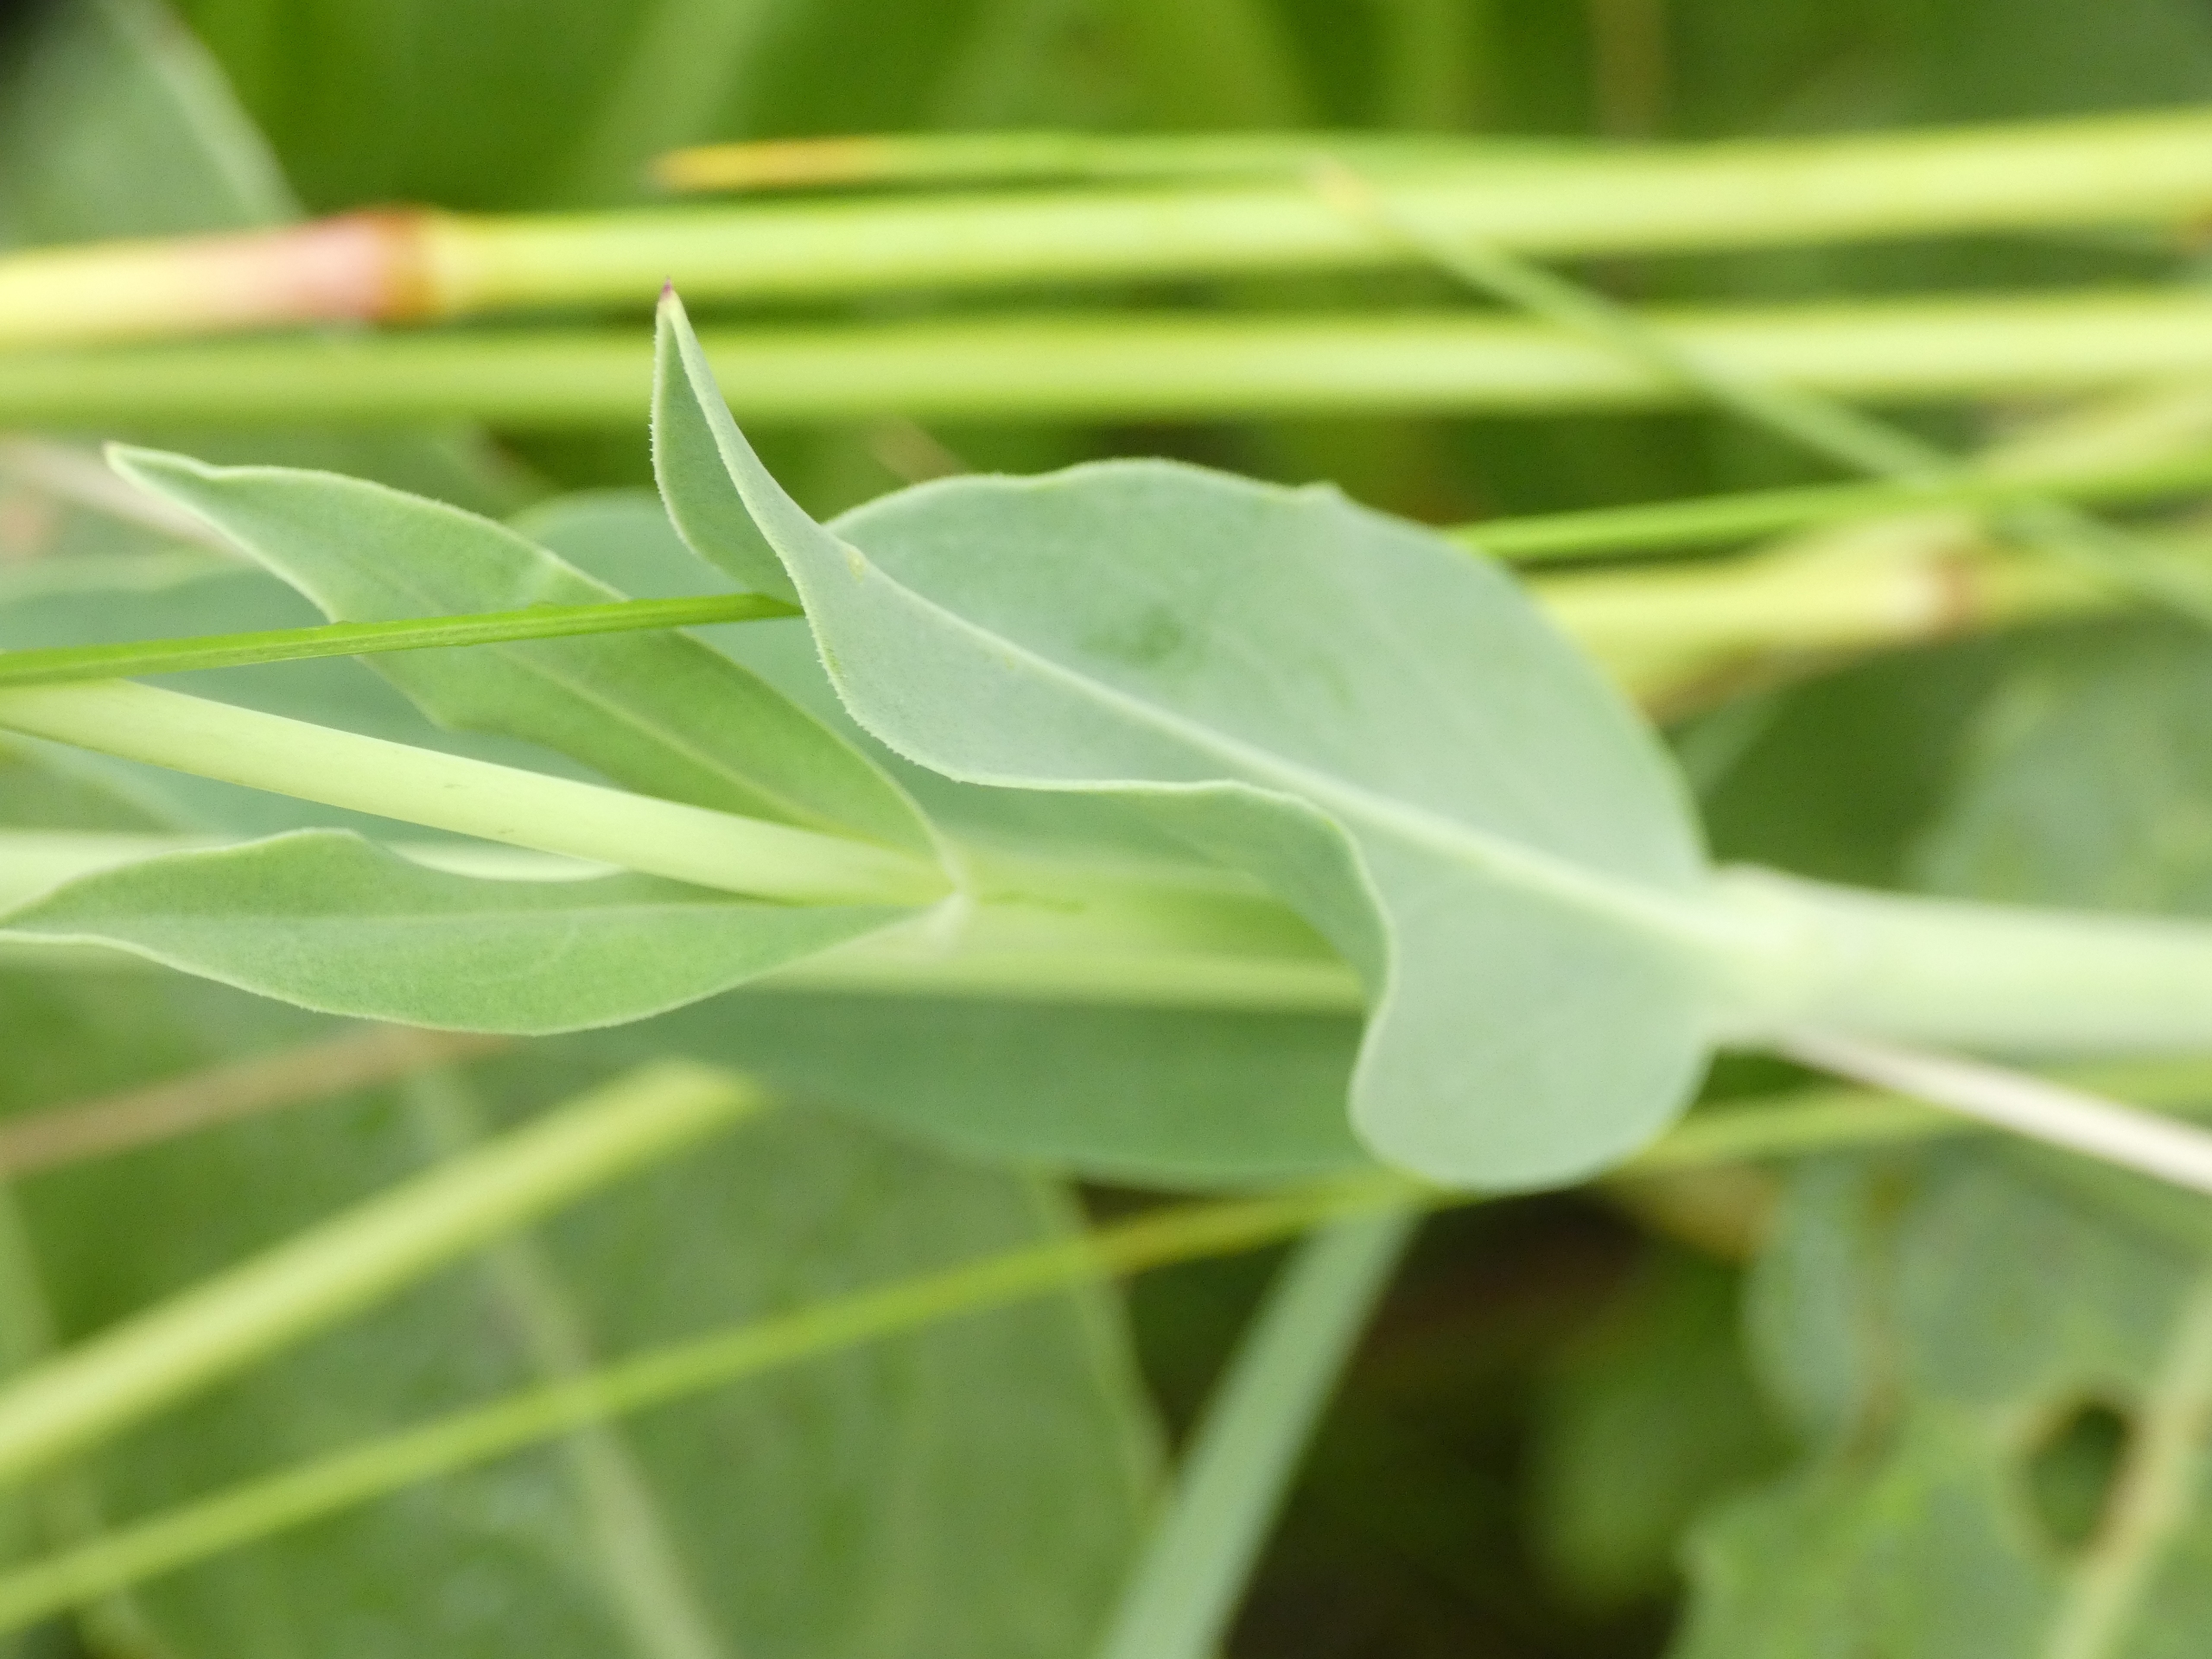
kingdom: Plantae
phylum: Tracheophyta
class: Magnoliopsida
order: Caryophyllales
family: Caryophyllaceae
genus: Silene
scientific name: Silene vulgaris
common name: Blæresmælde
